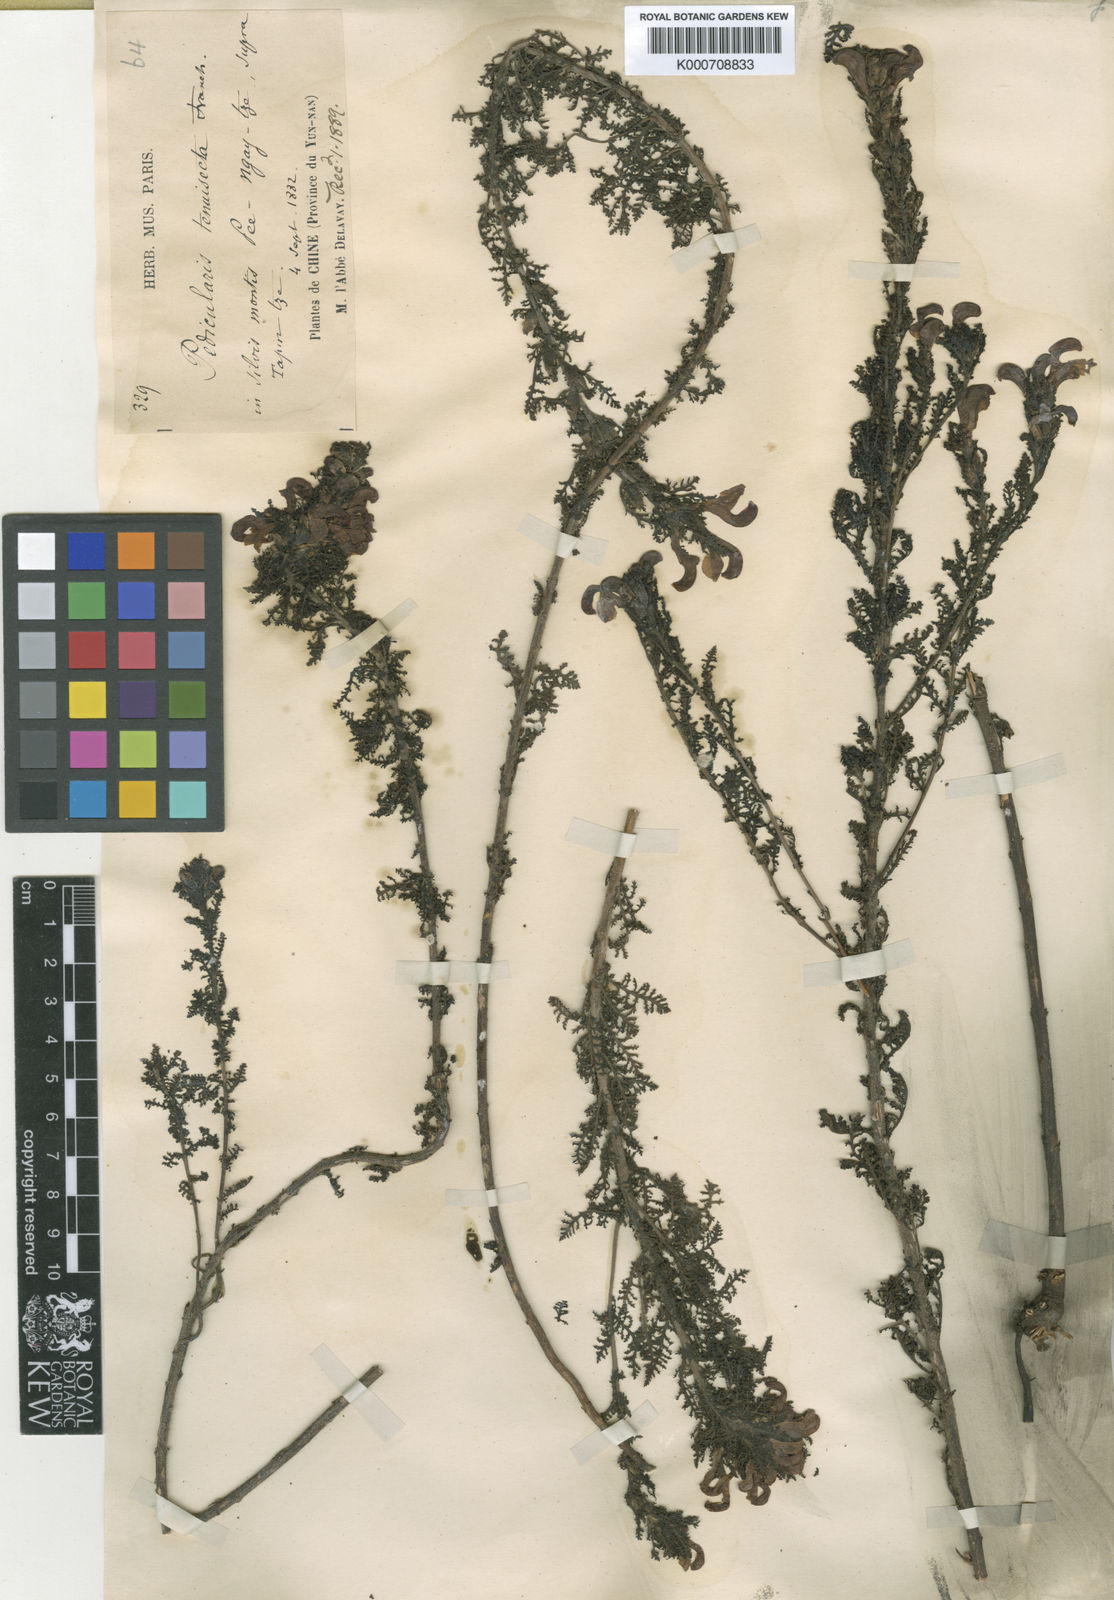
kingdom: Plantae
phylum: Tracheophyta
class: Magnoliopsida
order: Lamiales
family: Orobanchaceae
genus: Pedicularis
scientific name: Pedicularis tenuisecta
